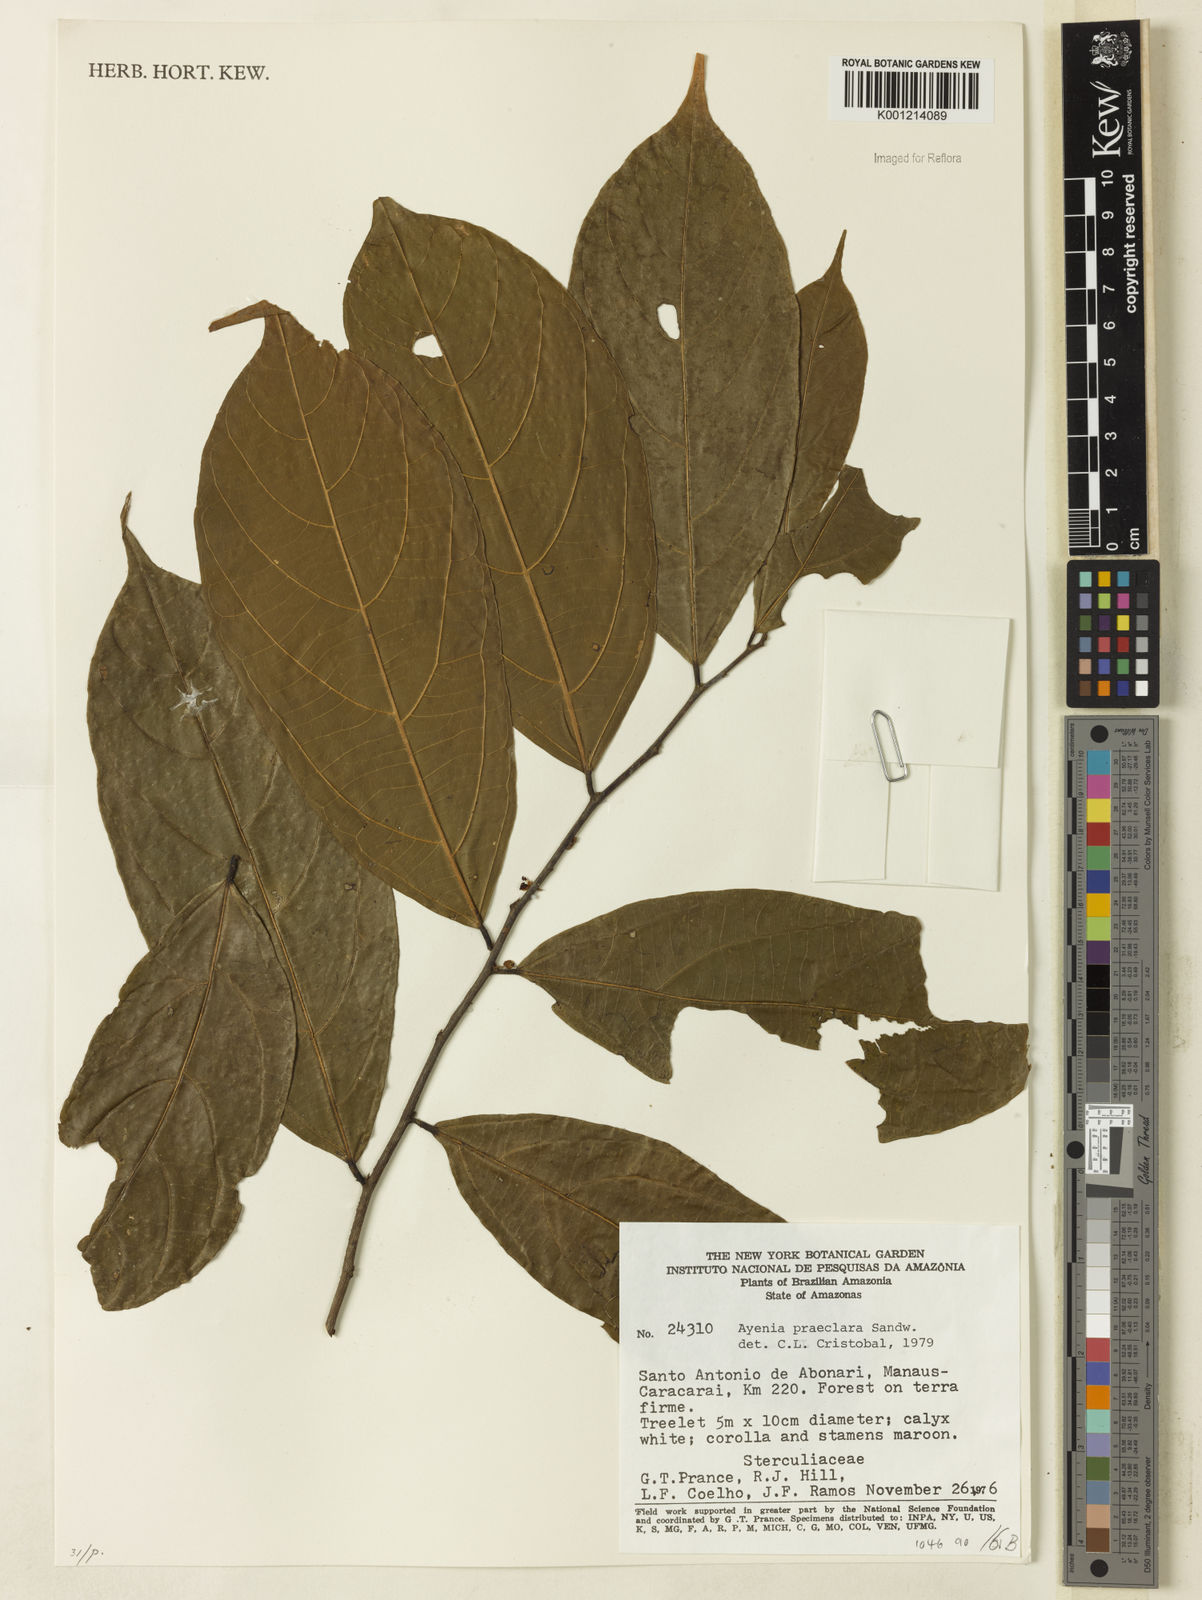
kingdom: Plantae
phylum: Tracheophyta
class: Magnoliopsida
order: Malvales
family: Malvaceae
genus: Ayenia
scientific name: Ayenia praeclara
